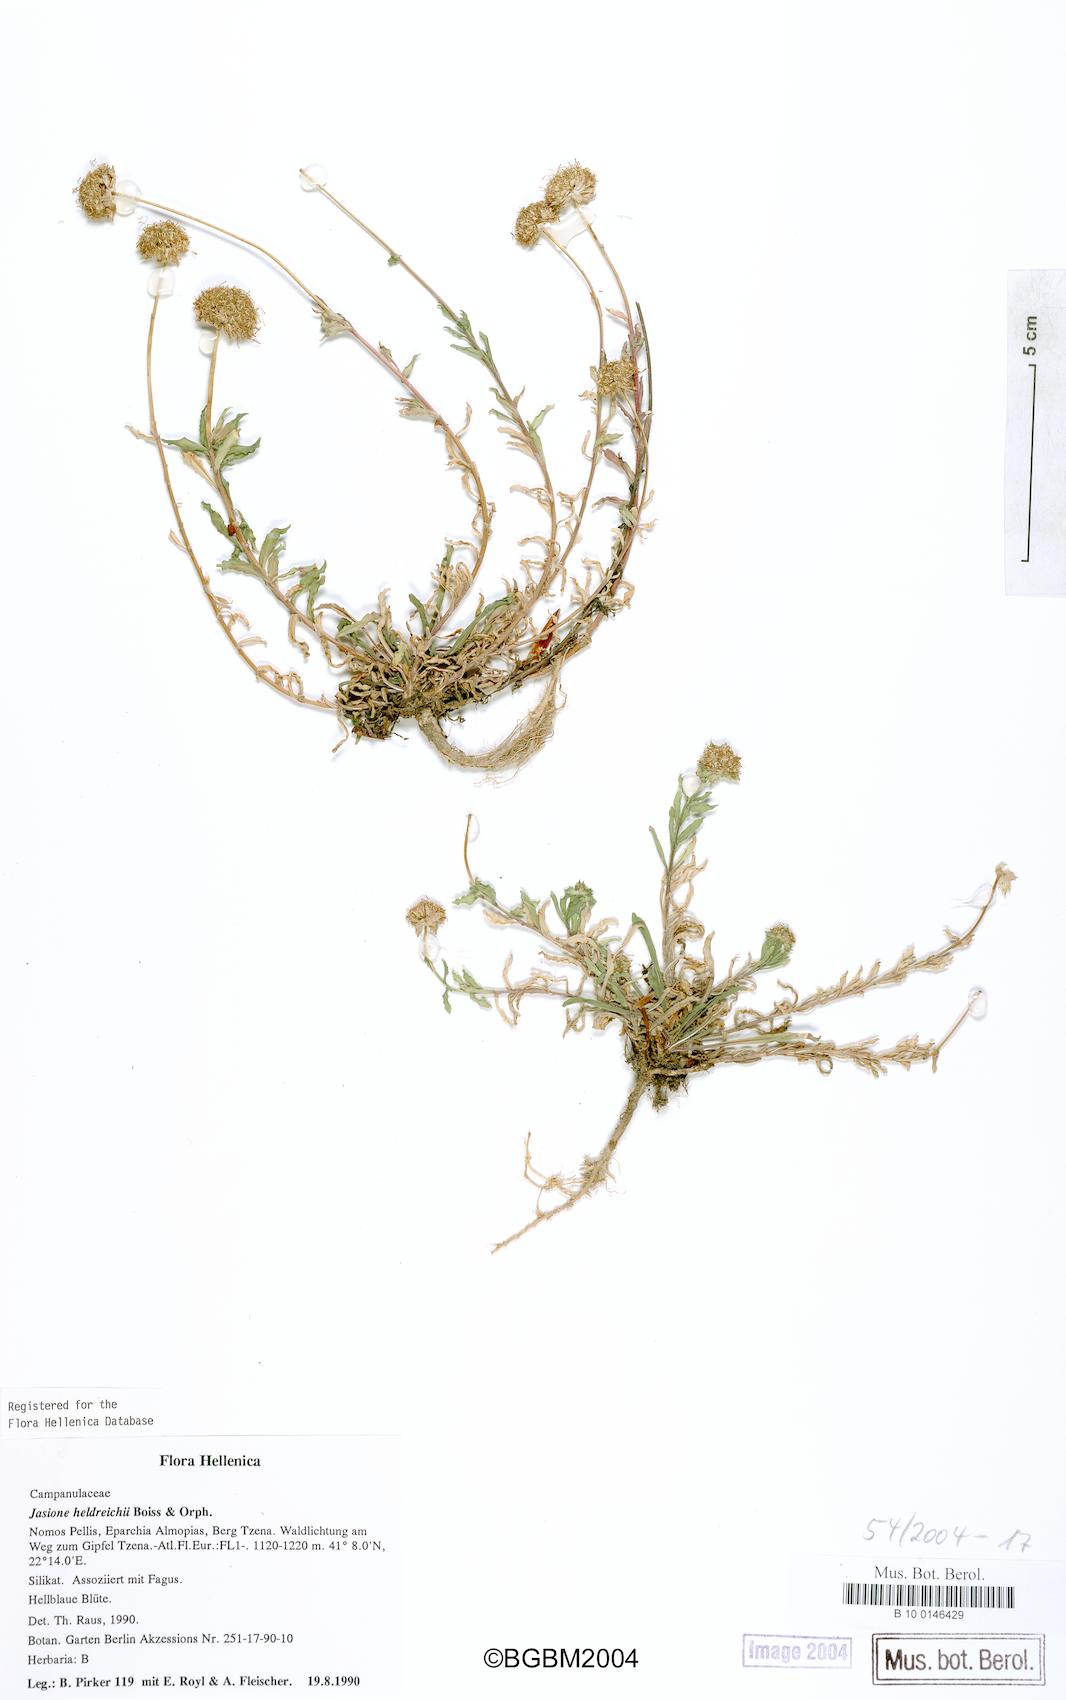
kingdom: Plantae
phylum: Tracheophyta
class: Magnoliopsida
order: Asterales
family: Campanulaceae
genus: Jasione
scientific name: Jasione heldreichii
